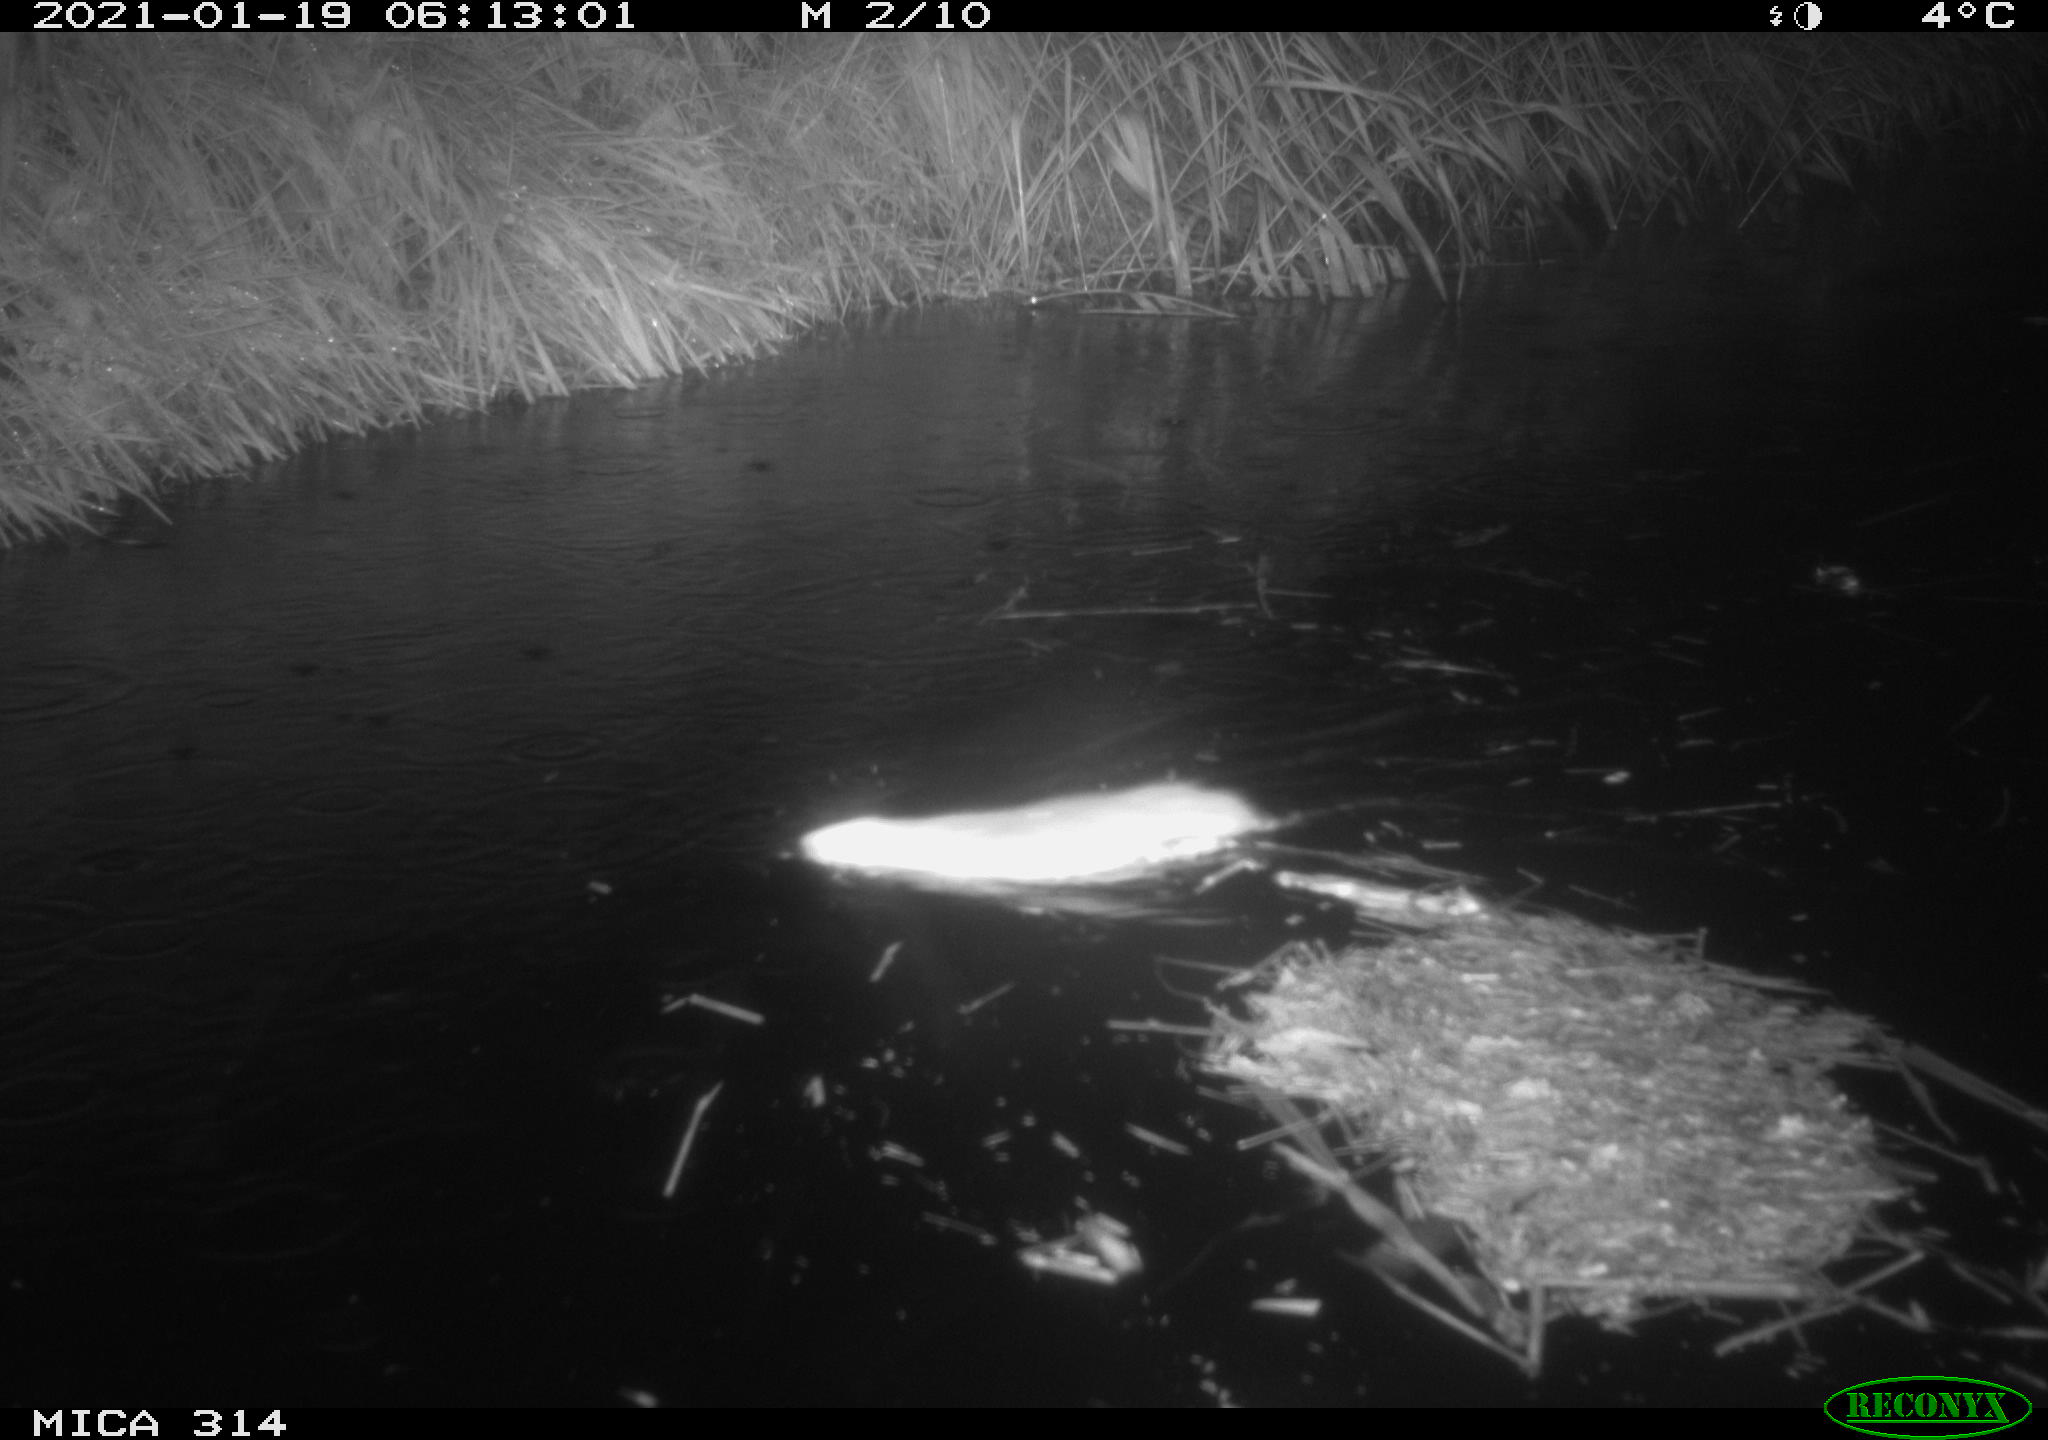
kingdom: Animalia
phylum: Chordata
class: Mammalia
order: Rodentia
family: Muridae
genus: Rattus
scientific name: Rattus norvegicus
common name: Brown rat
